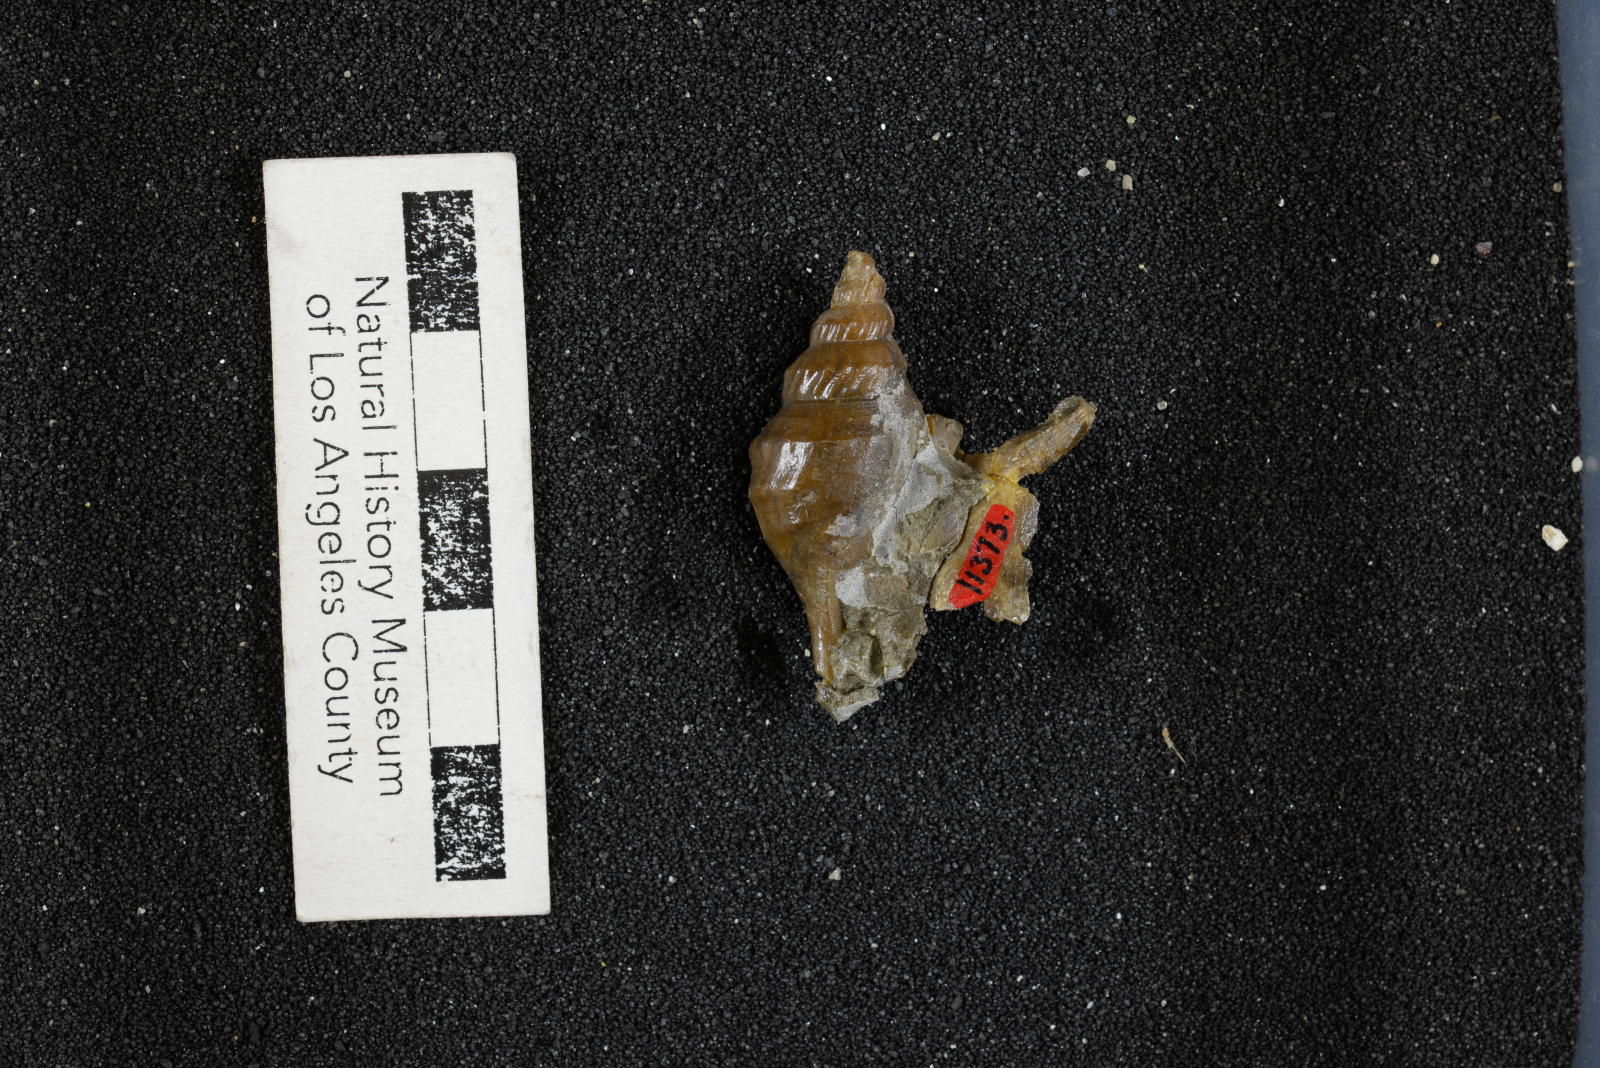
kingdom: Animalia
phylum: Mollusca
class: Gastropoda
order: Littorinimorpha
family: Aporrhaidae
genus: Aporrhais
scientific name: Aporrhais drachuki
